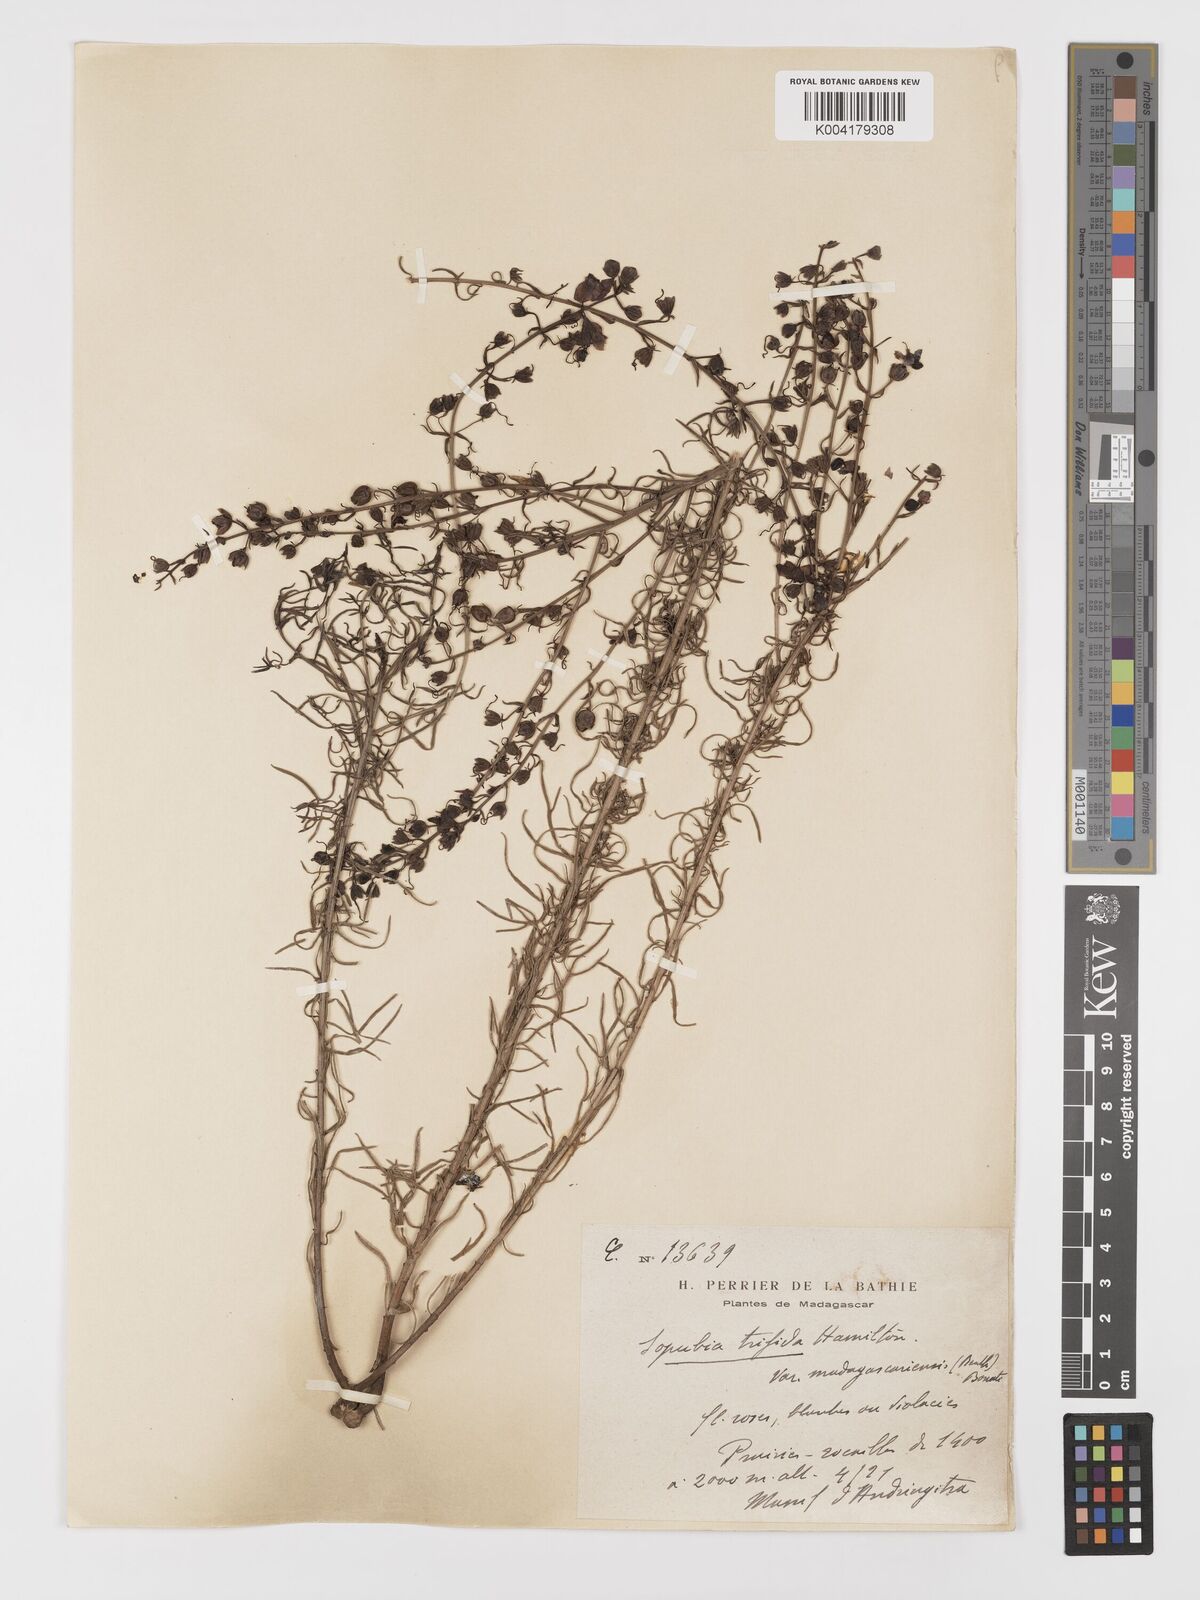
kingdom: Plantae
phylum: Tracheophyta
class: Magnoliopsida
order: Lamiales
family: Orobanchaceae
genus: Sopubia
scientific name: Sopubia trifida
